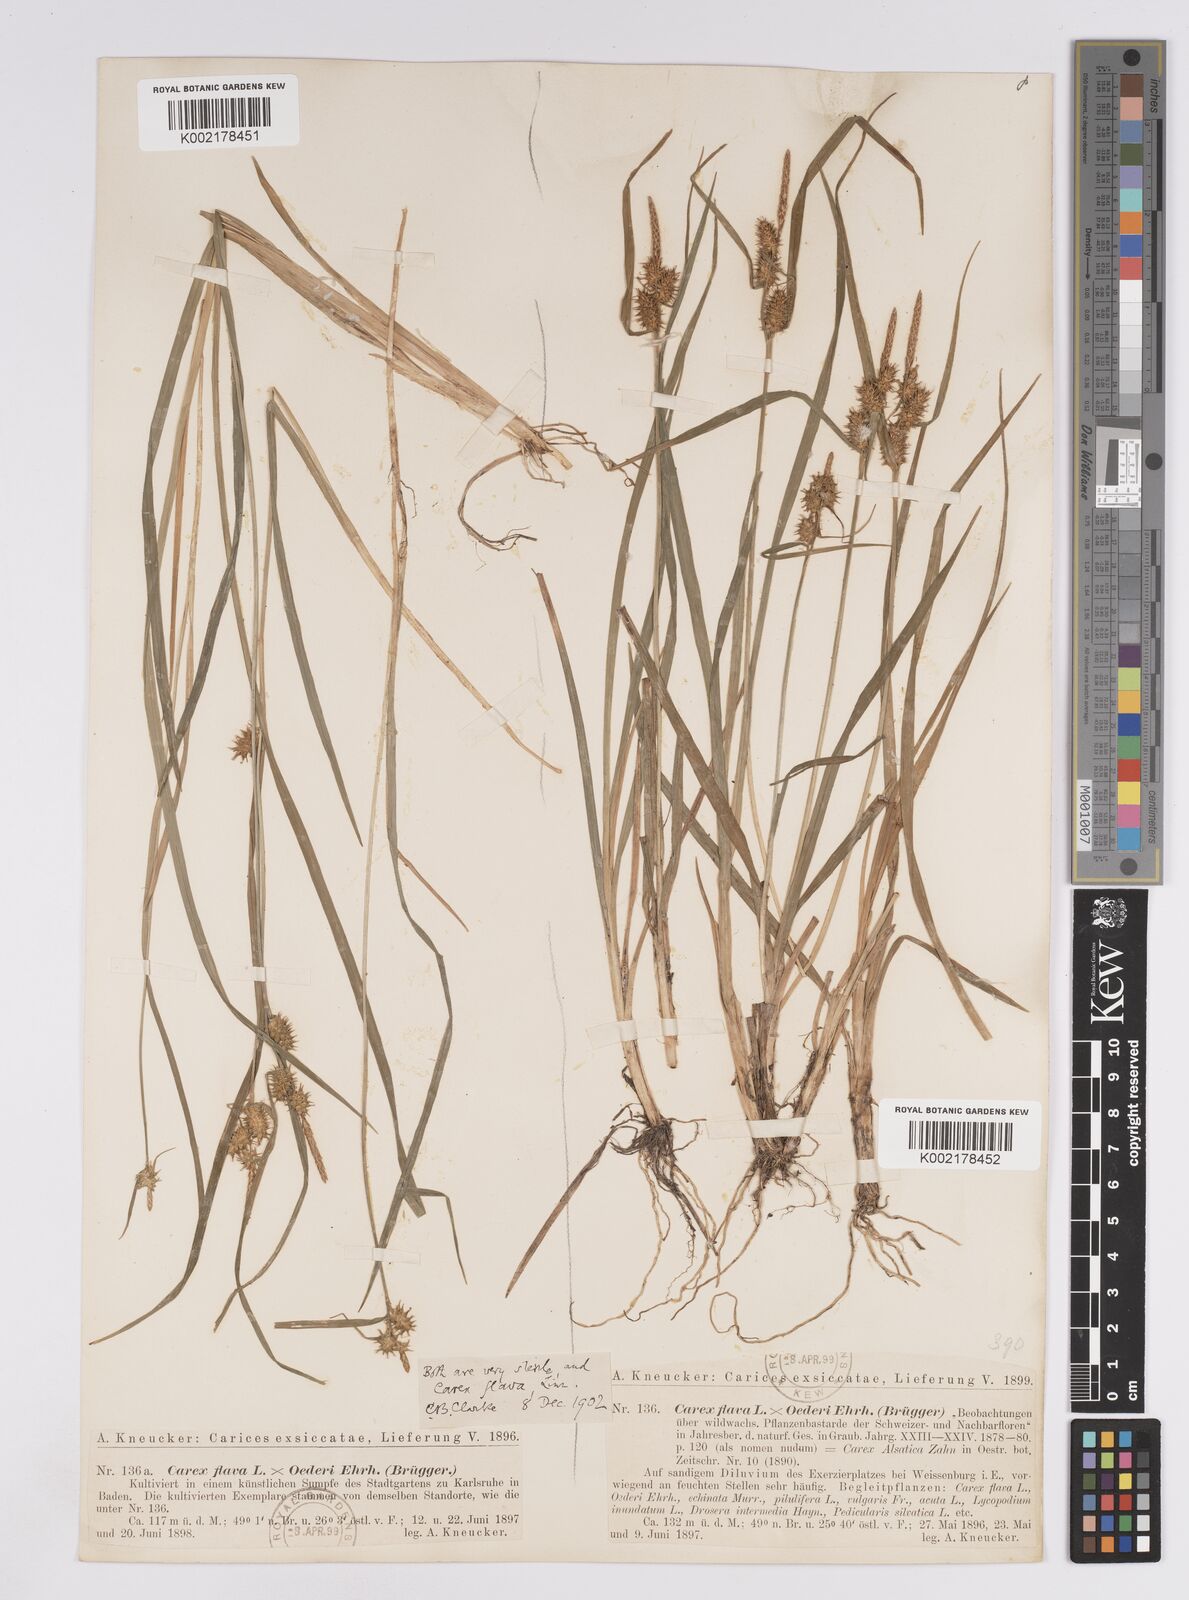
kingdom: Plantae
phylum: Tracheophyta
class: Liliopsida
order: Poales
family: Cyperaceae
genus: Carex
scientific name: Carex demissa
